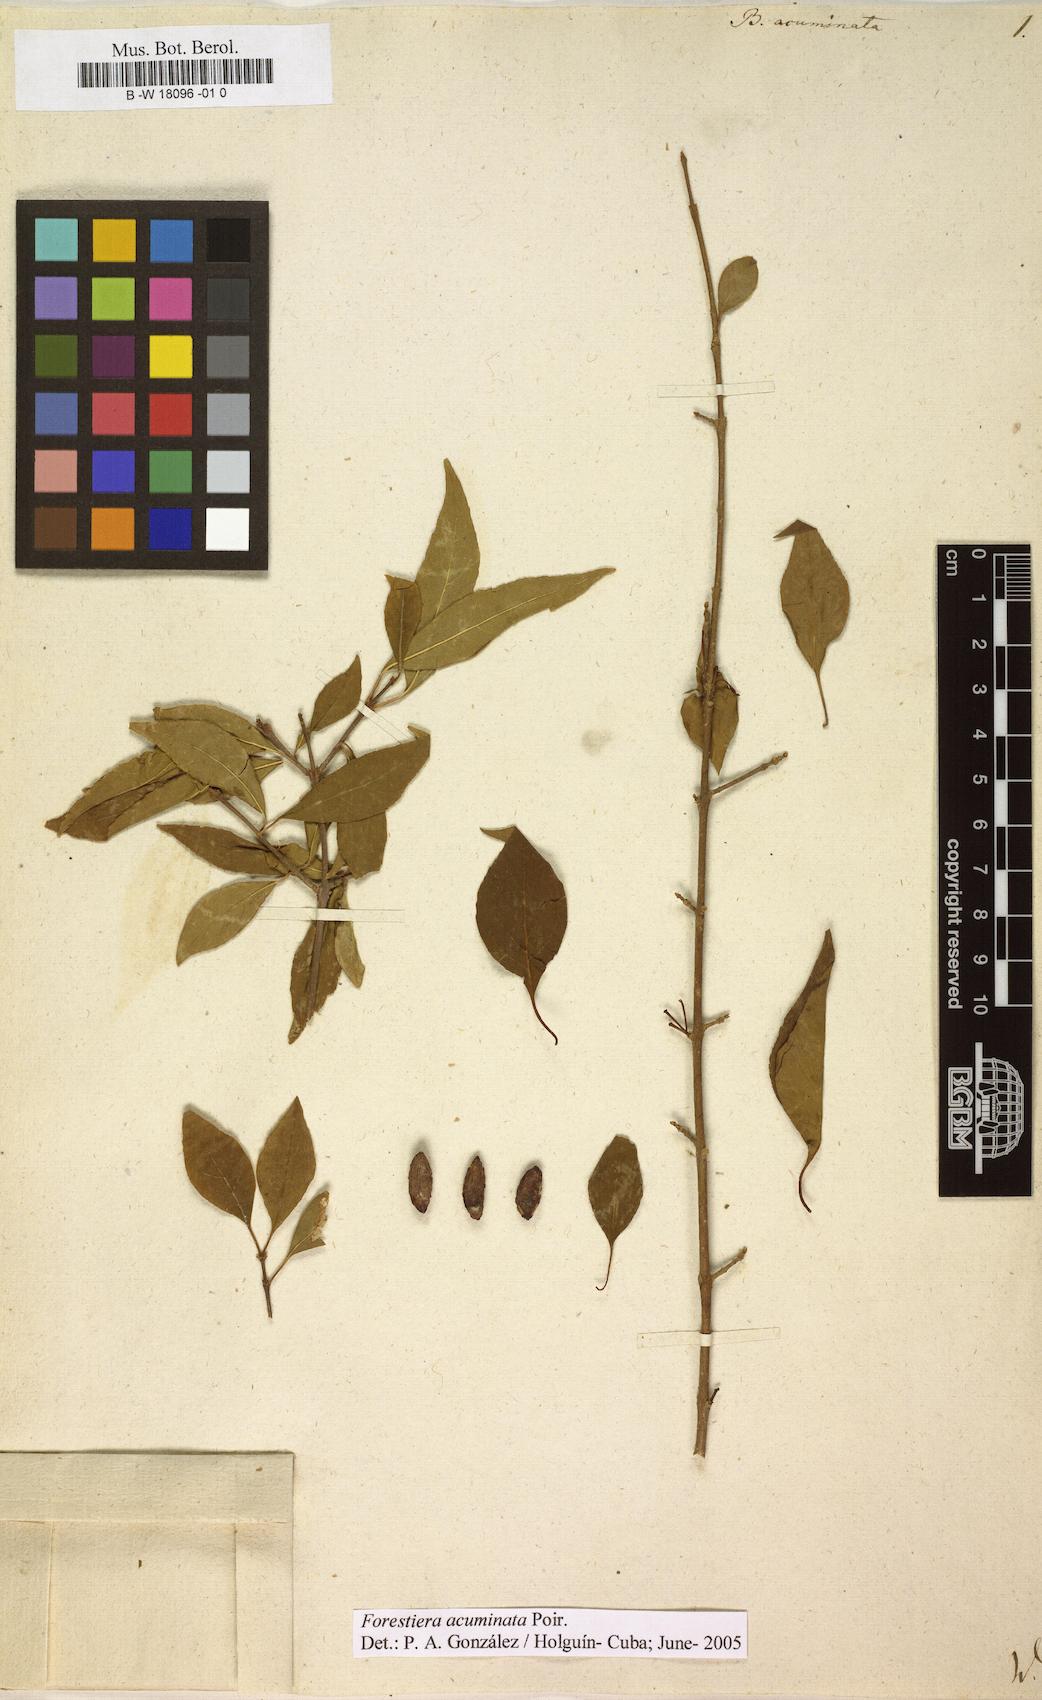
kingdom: Plantae
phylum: Tracheophyta
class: Magnoliopsida
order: Lamiales
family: Oleaceae
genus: Forestiera
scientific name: Forestiera acuminata
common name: Swamp-privet
